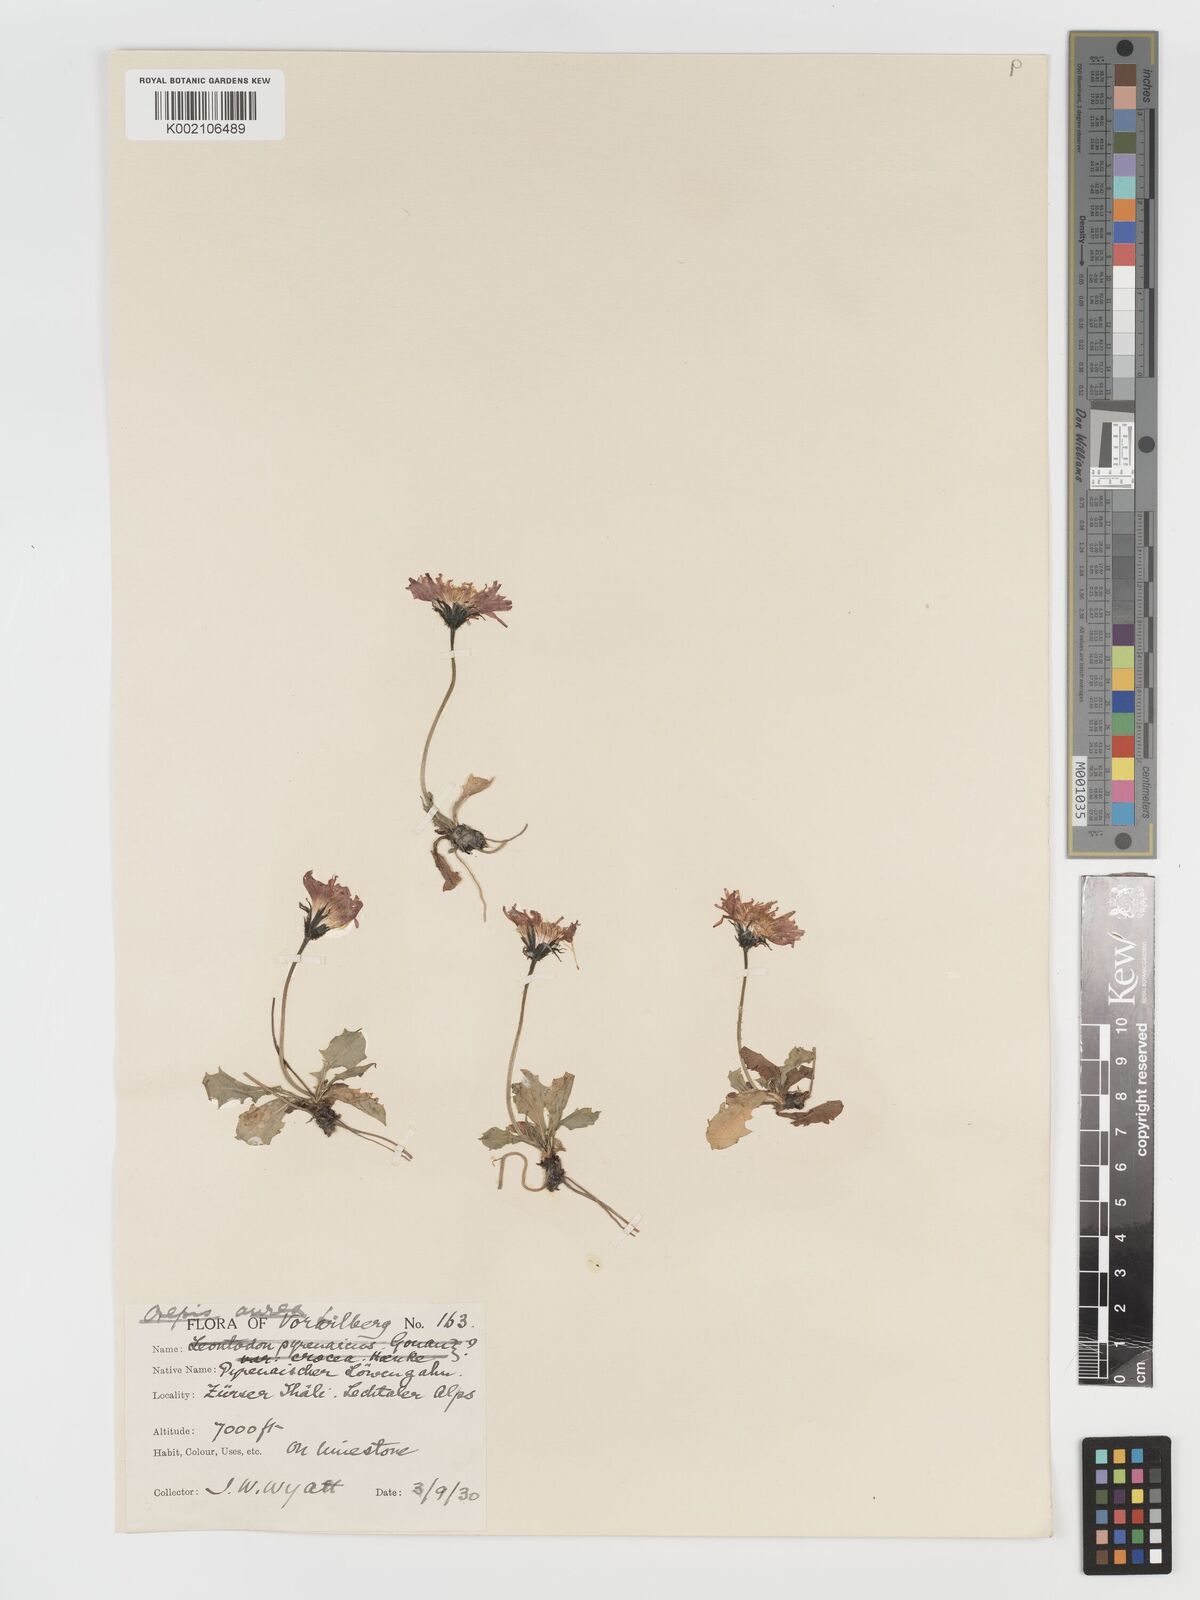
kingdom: Plantae
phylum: Tracheophyta
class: Magnoliopsida
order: Asterales
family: Asteraceae
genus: Crepis
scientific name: Crepis aurea
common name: Golden hawk's-beard
